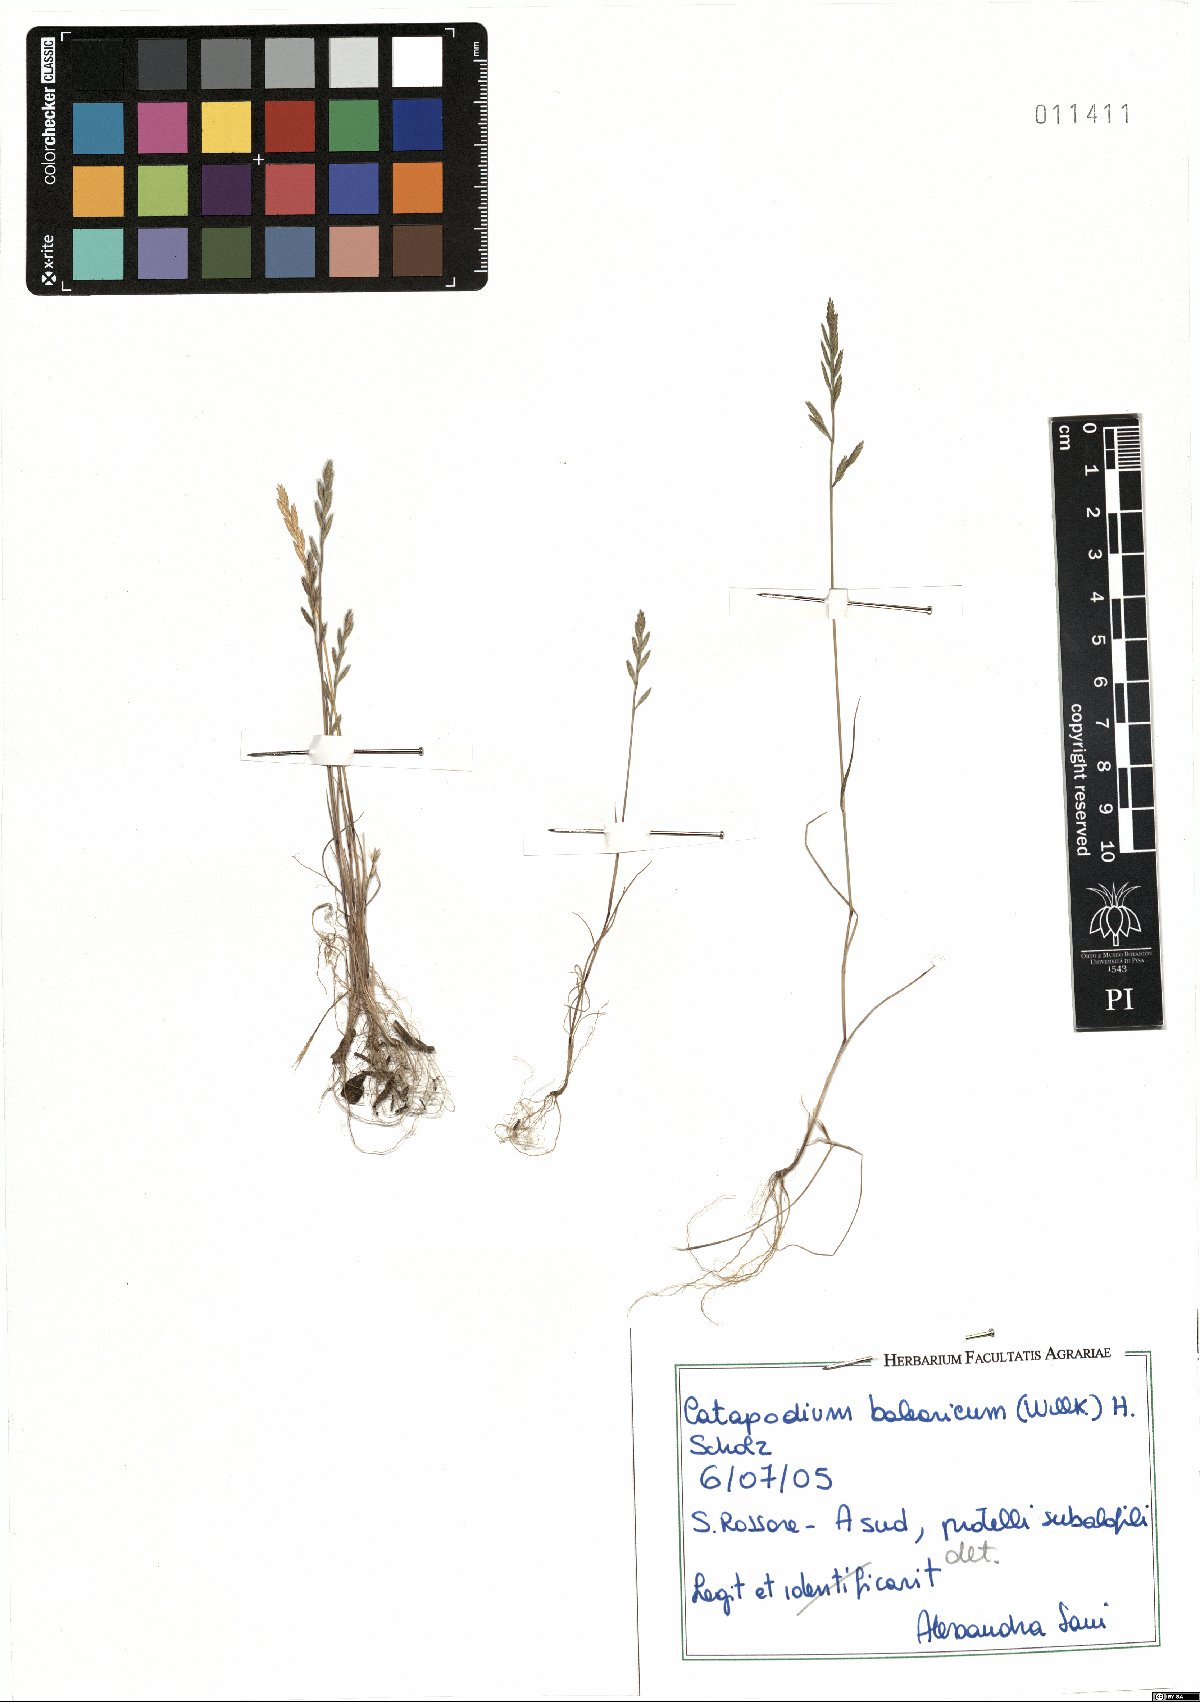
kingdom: Plantae
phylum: Tracheophyta
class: Liliopsida
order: Poales
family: Poaceae
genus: Catapodium
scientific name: Catapodium balearicum
